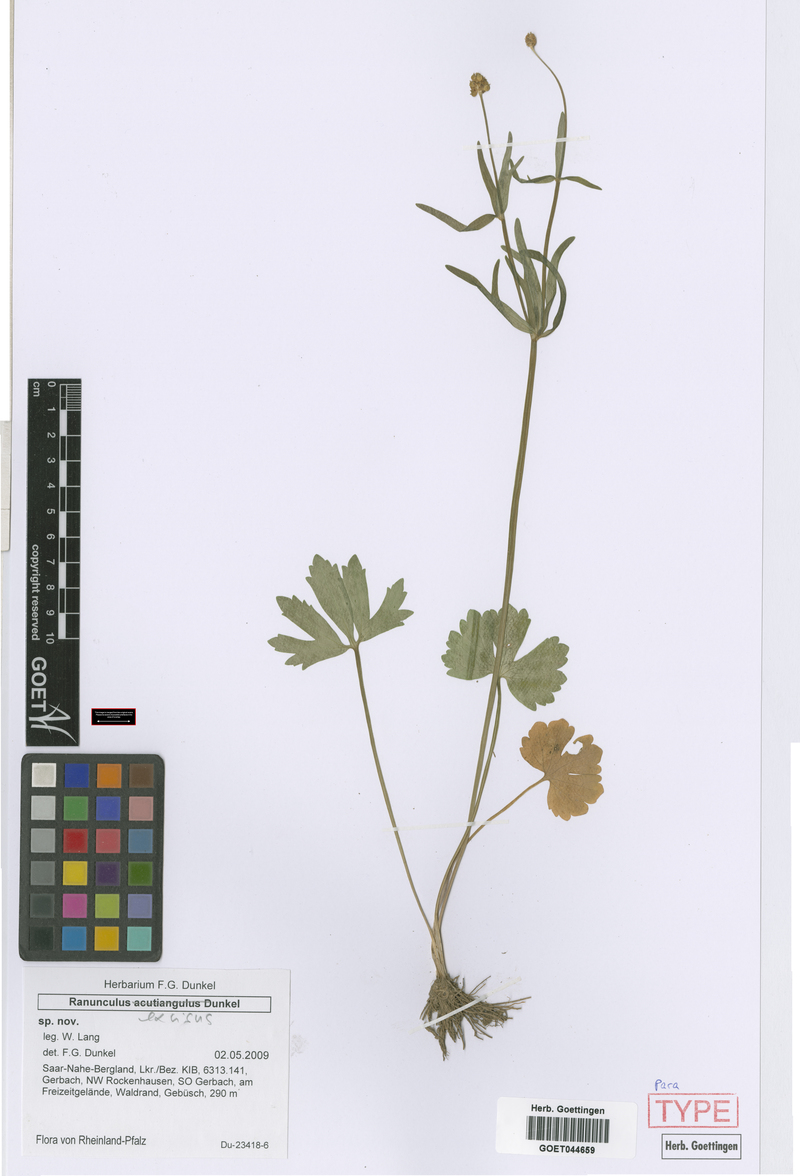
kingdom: Plantae
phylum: Tracheophyta
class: Magnoliopsida
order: Ranunculales
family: Ranunculaceae
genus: Ranunculus
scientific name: Ranunculus excisus
